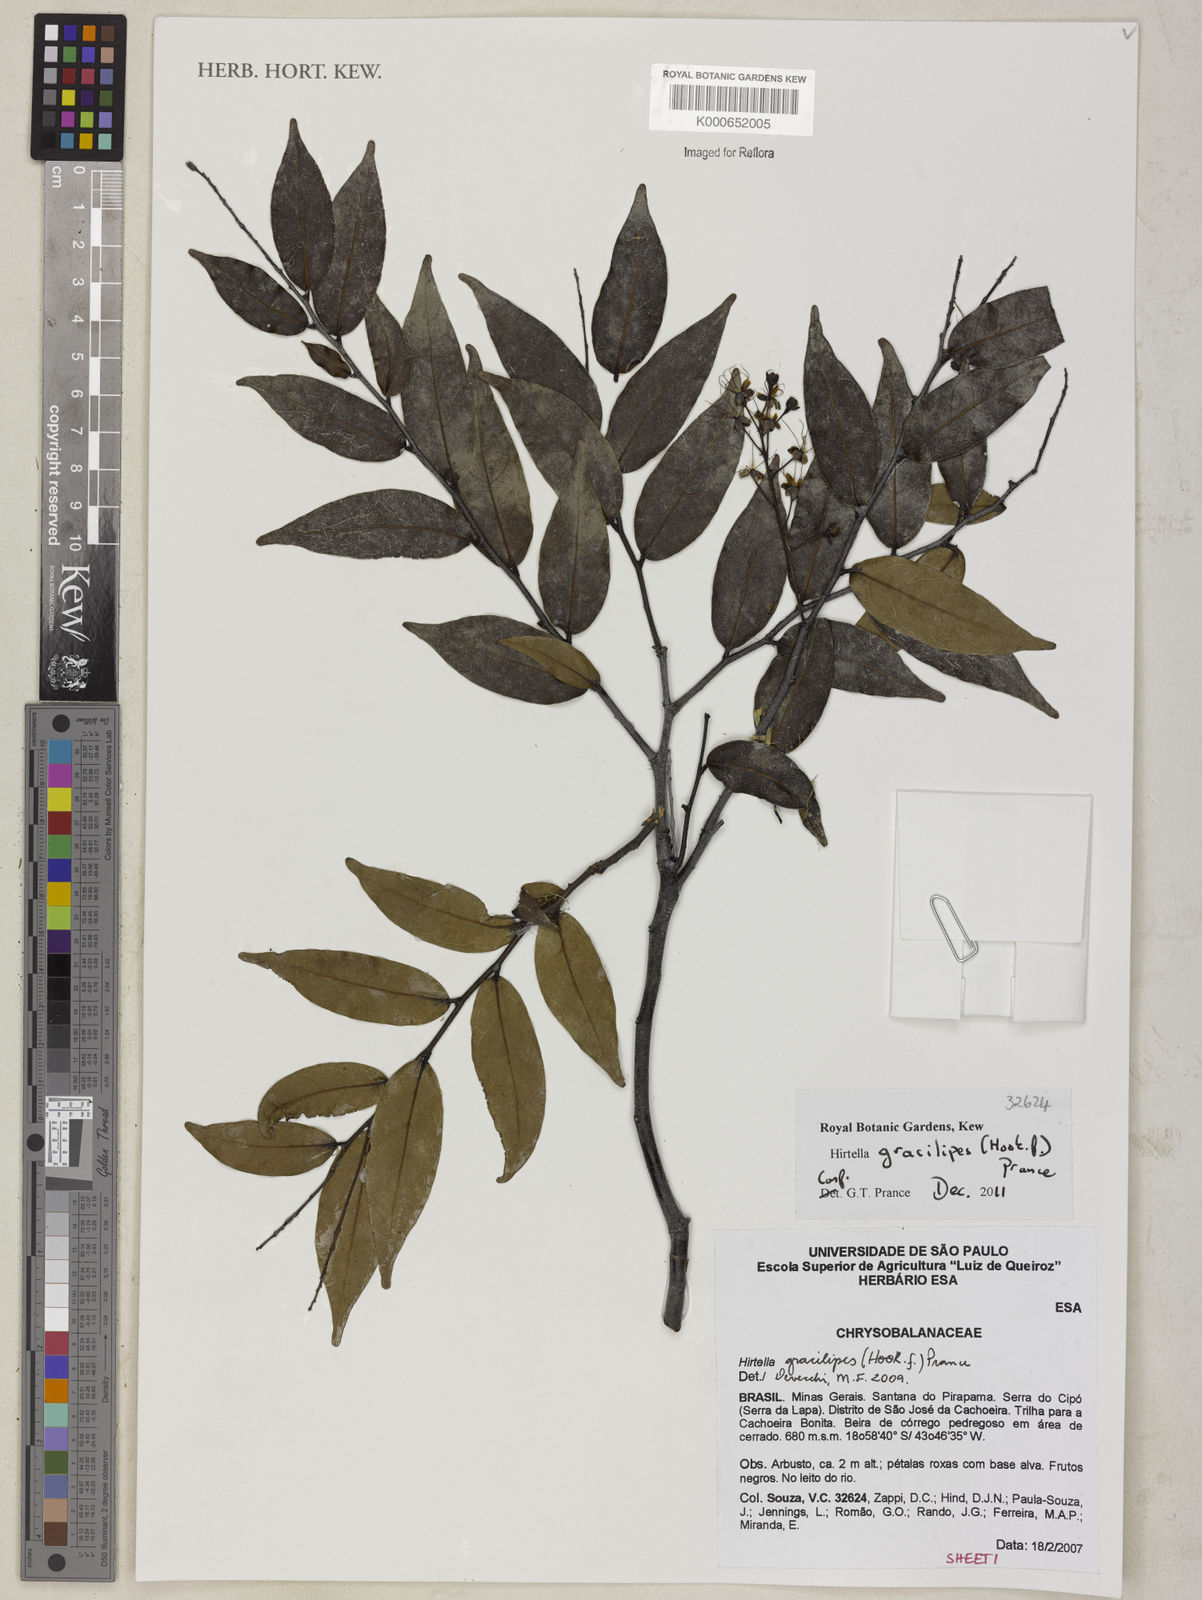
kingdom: Plantae
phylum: Tracheophyta
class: Magnoliopsida
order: Malpighiales
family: Chrysobalanaceae
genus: Hirtella
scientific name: Hirtella gracilipes
